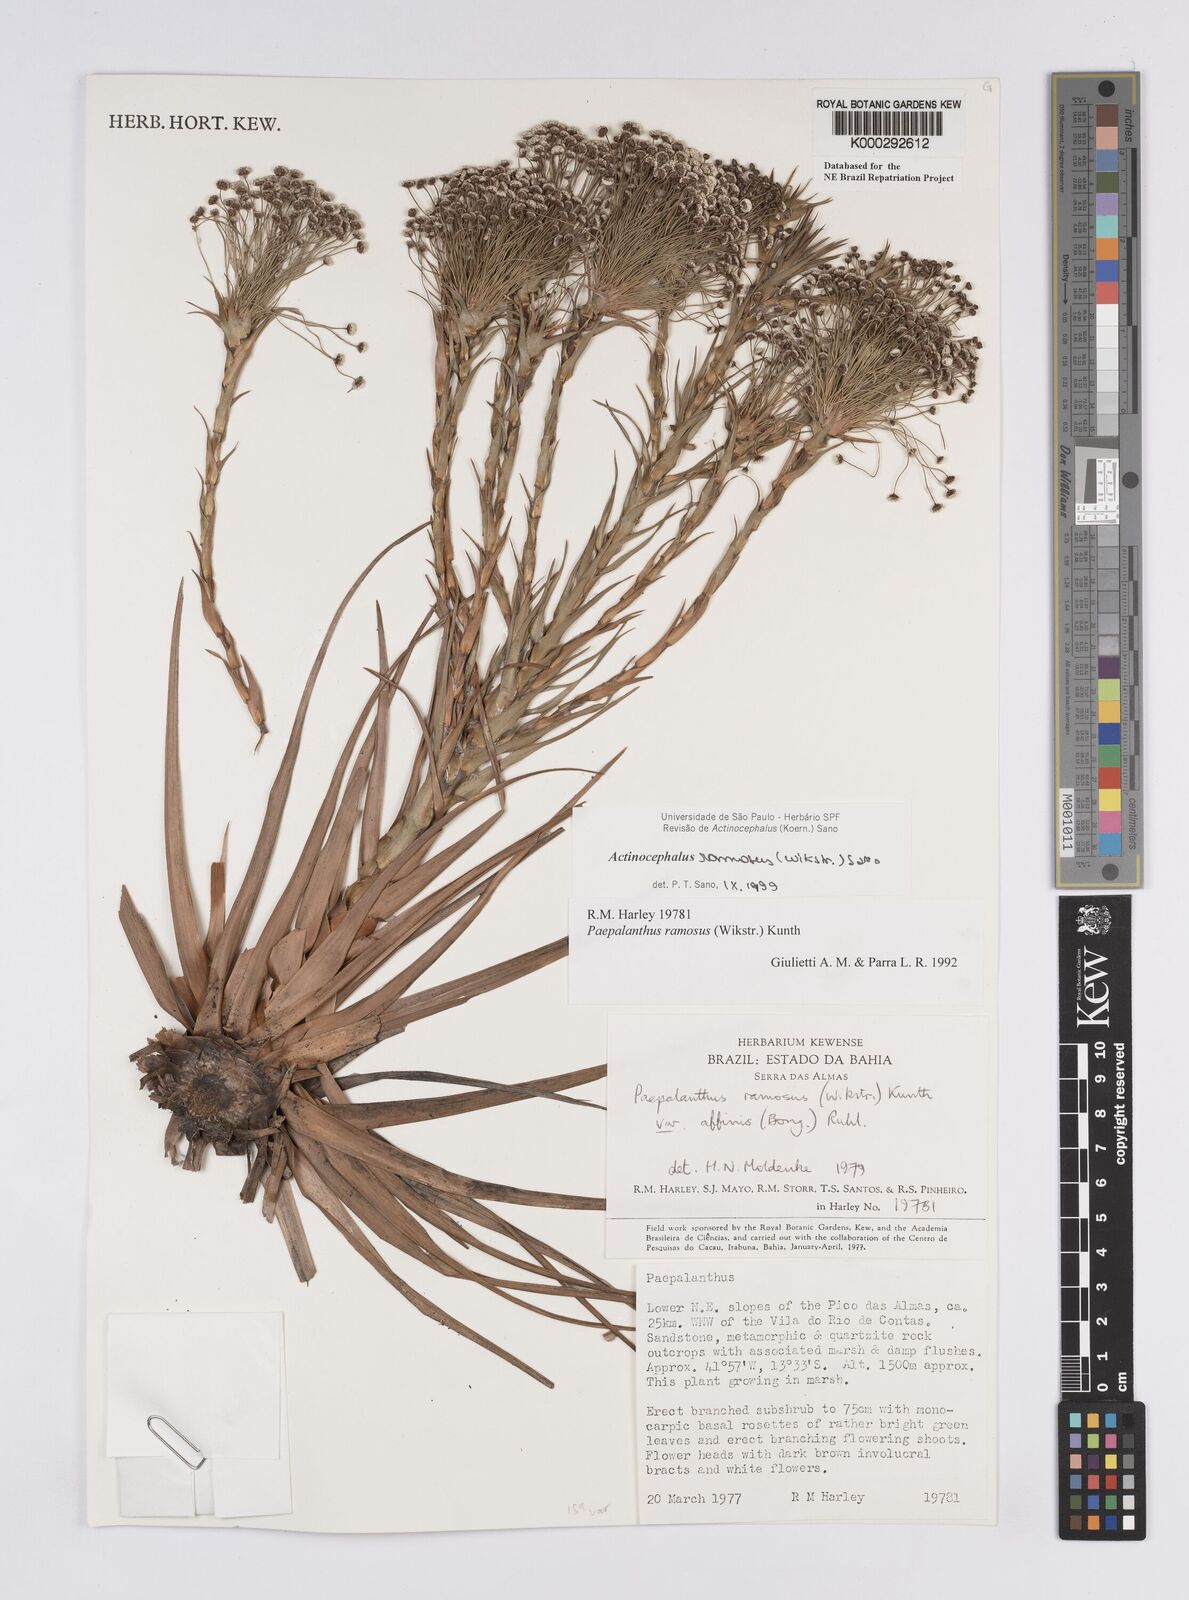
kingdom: Plantae
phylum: Tracheophyta
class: Liliopsida
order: Poales
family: Eriocaulaceae
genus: Paepalanthus
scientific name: Paepalanthus ramosus
